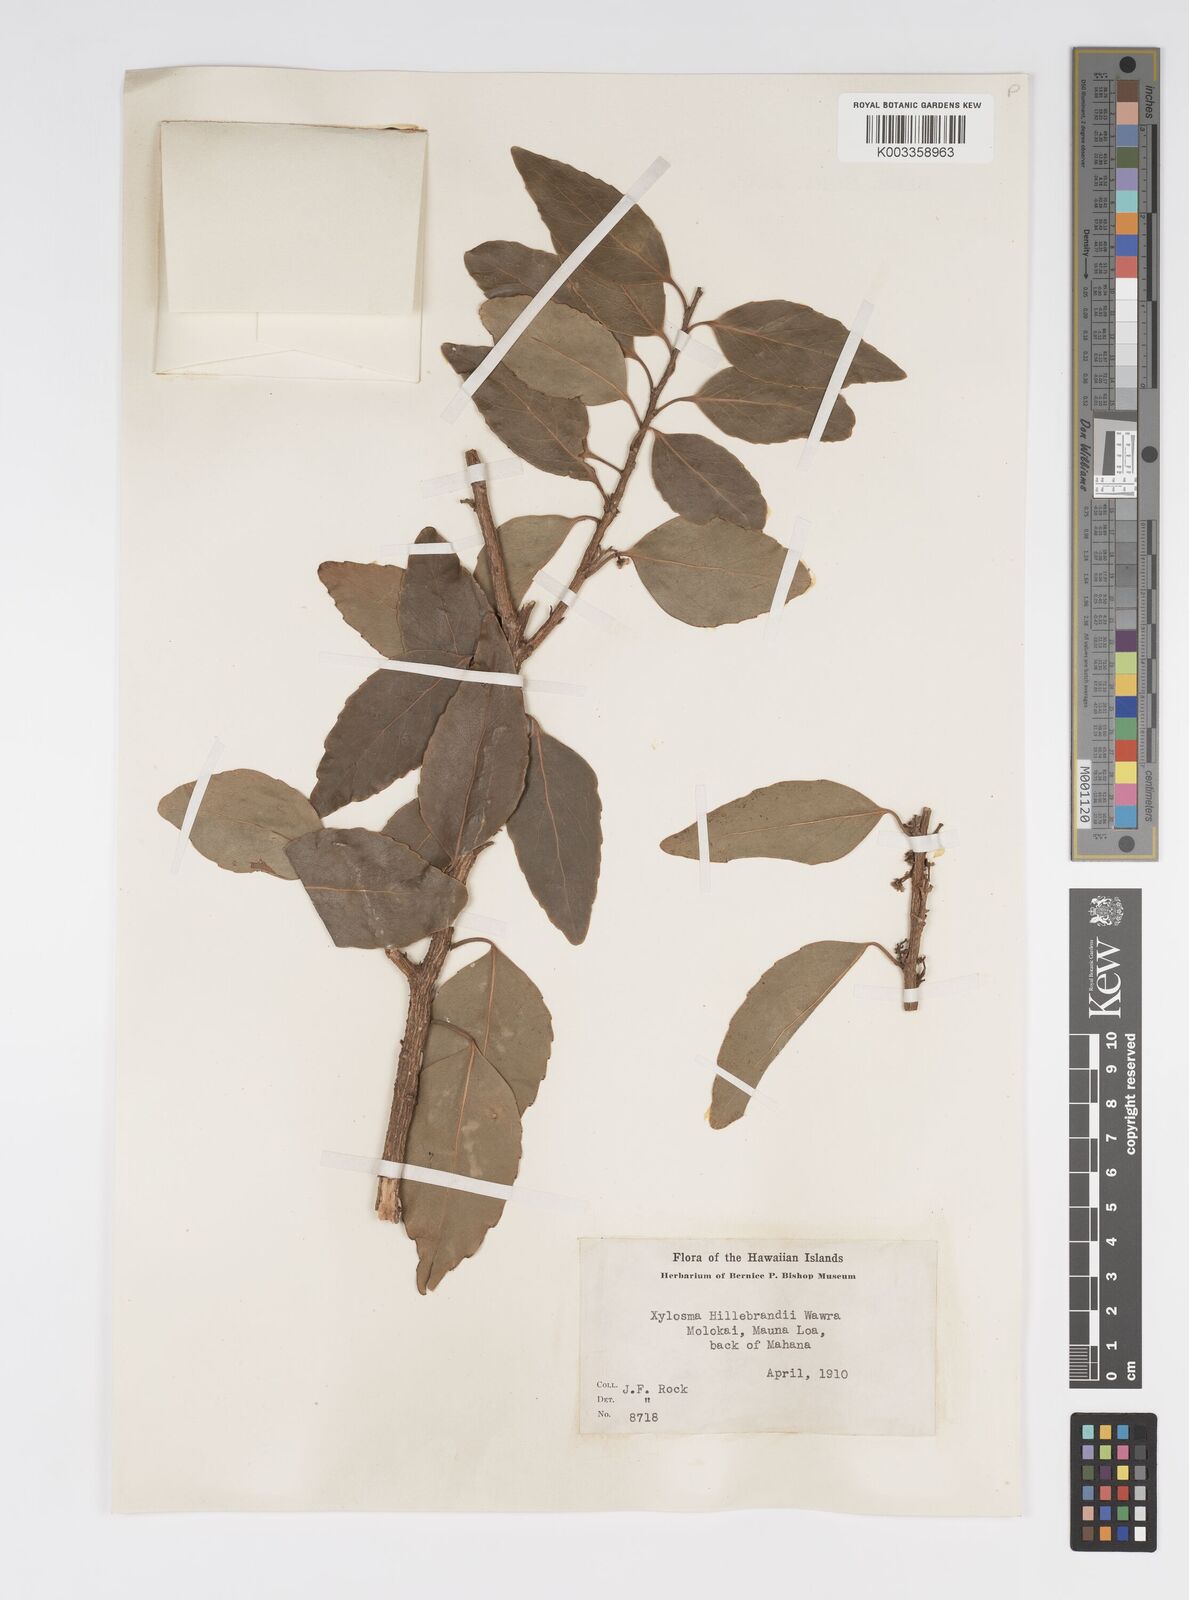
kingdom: Plantae
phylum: Tracheophyta
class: Magnoliopsida
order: Malpighiales
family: Salicaceae
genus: Xylosma
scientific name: Xylosma hawaiense
